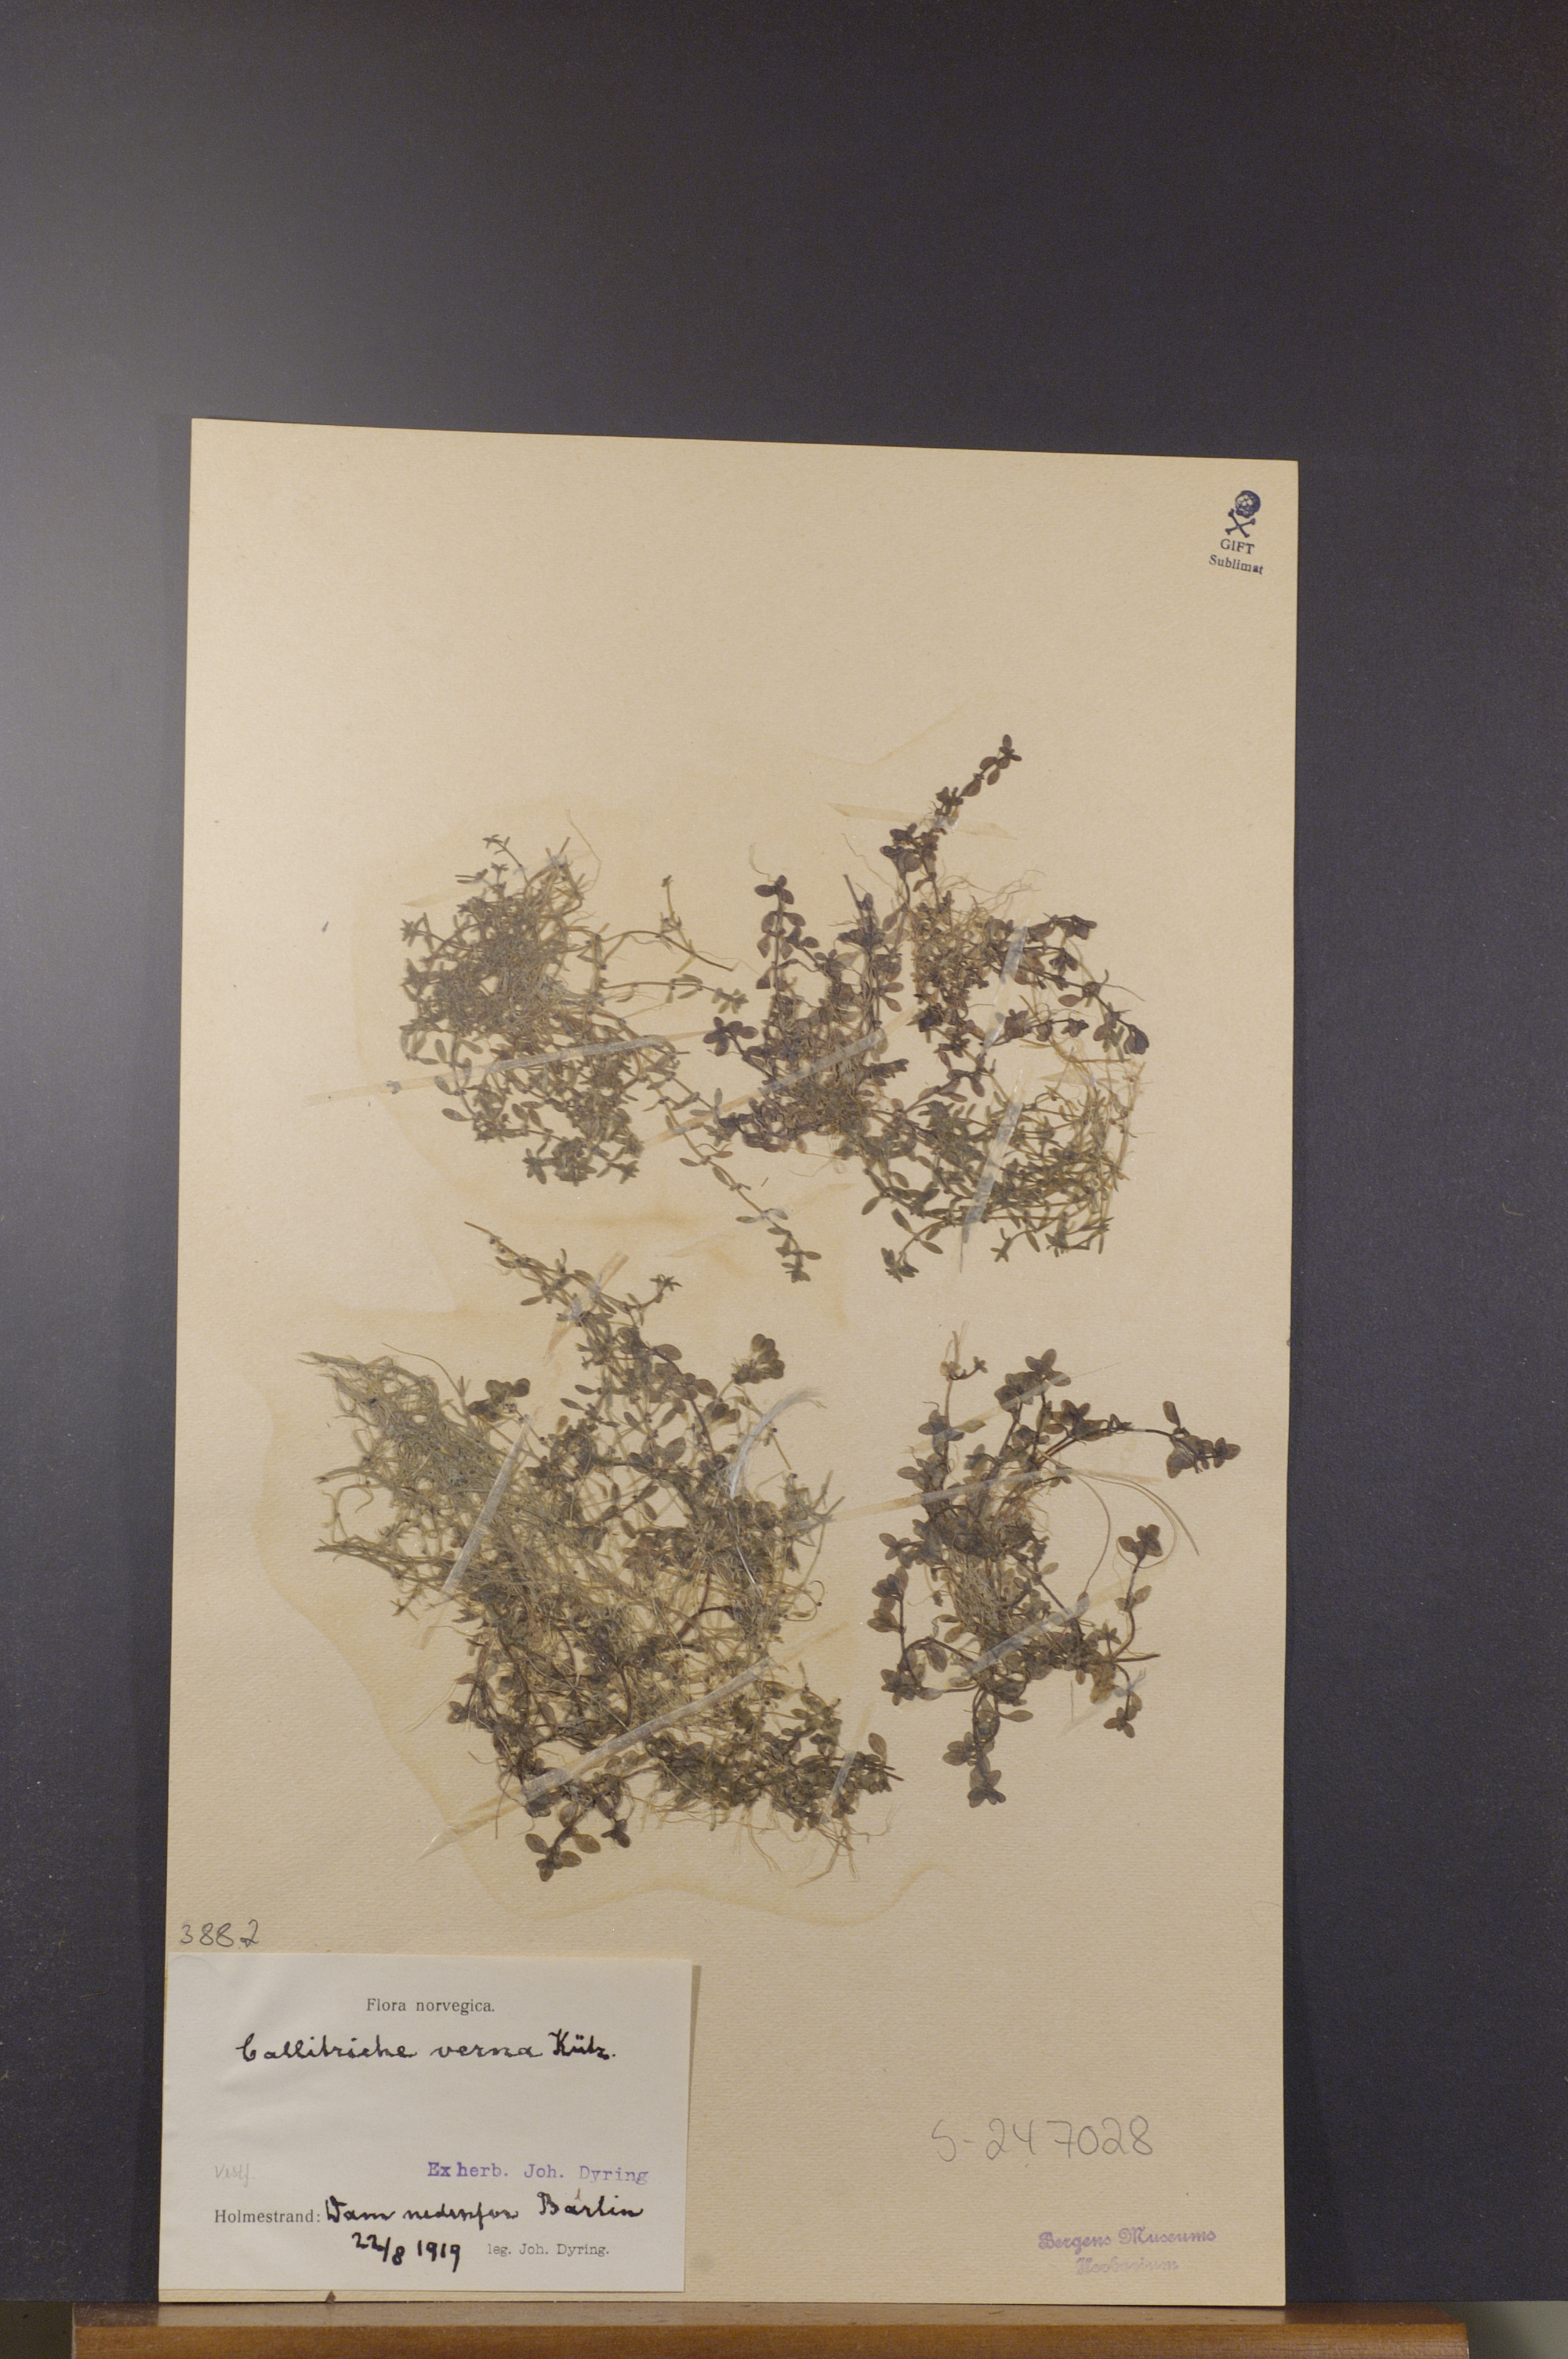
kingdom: Plantae
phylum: Tracheophyta
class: Magnoliopsida
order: Lamiales
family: Plantaginaceae
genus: Callitriche
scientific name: Callitriche palustris
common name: Spring water-starwort
